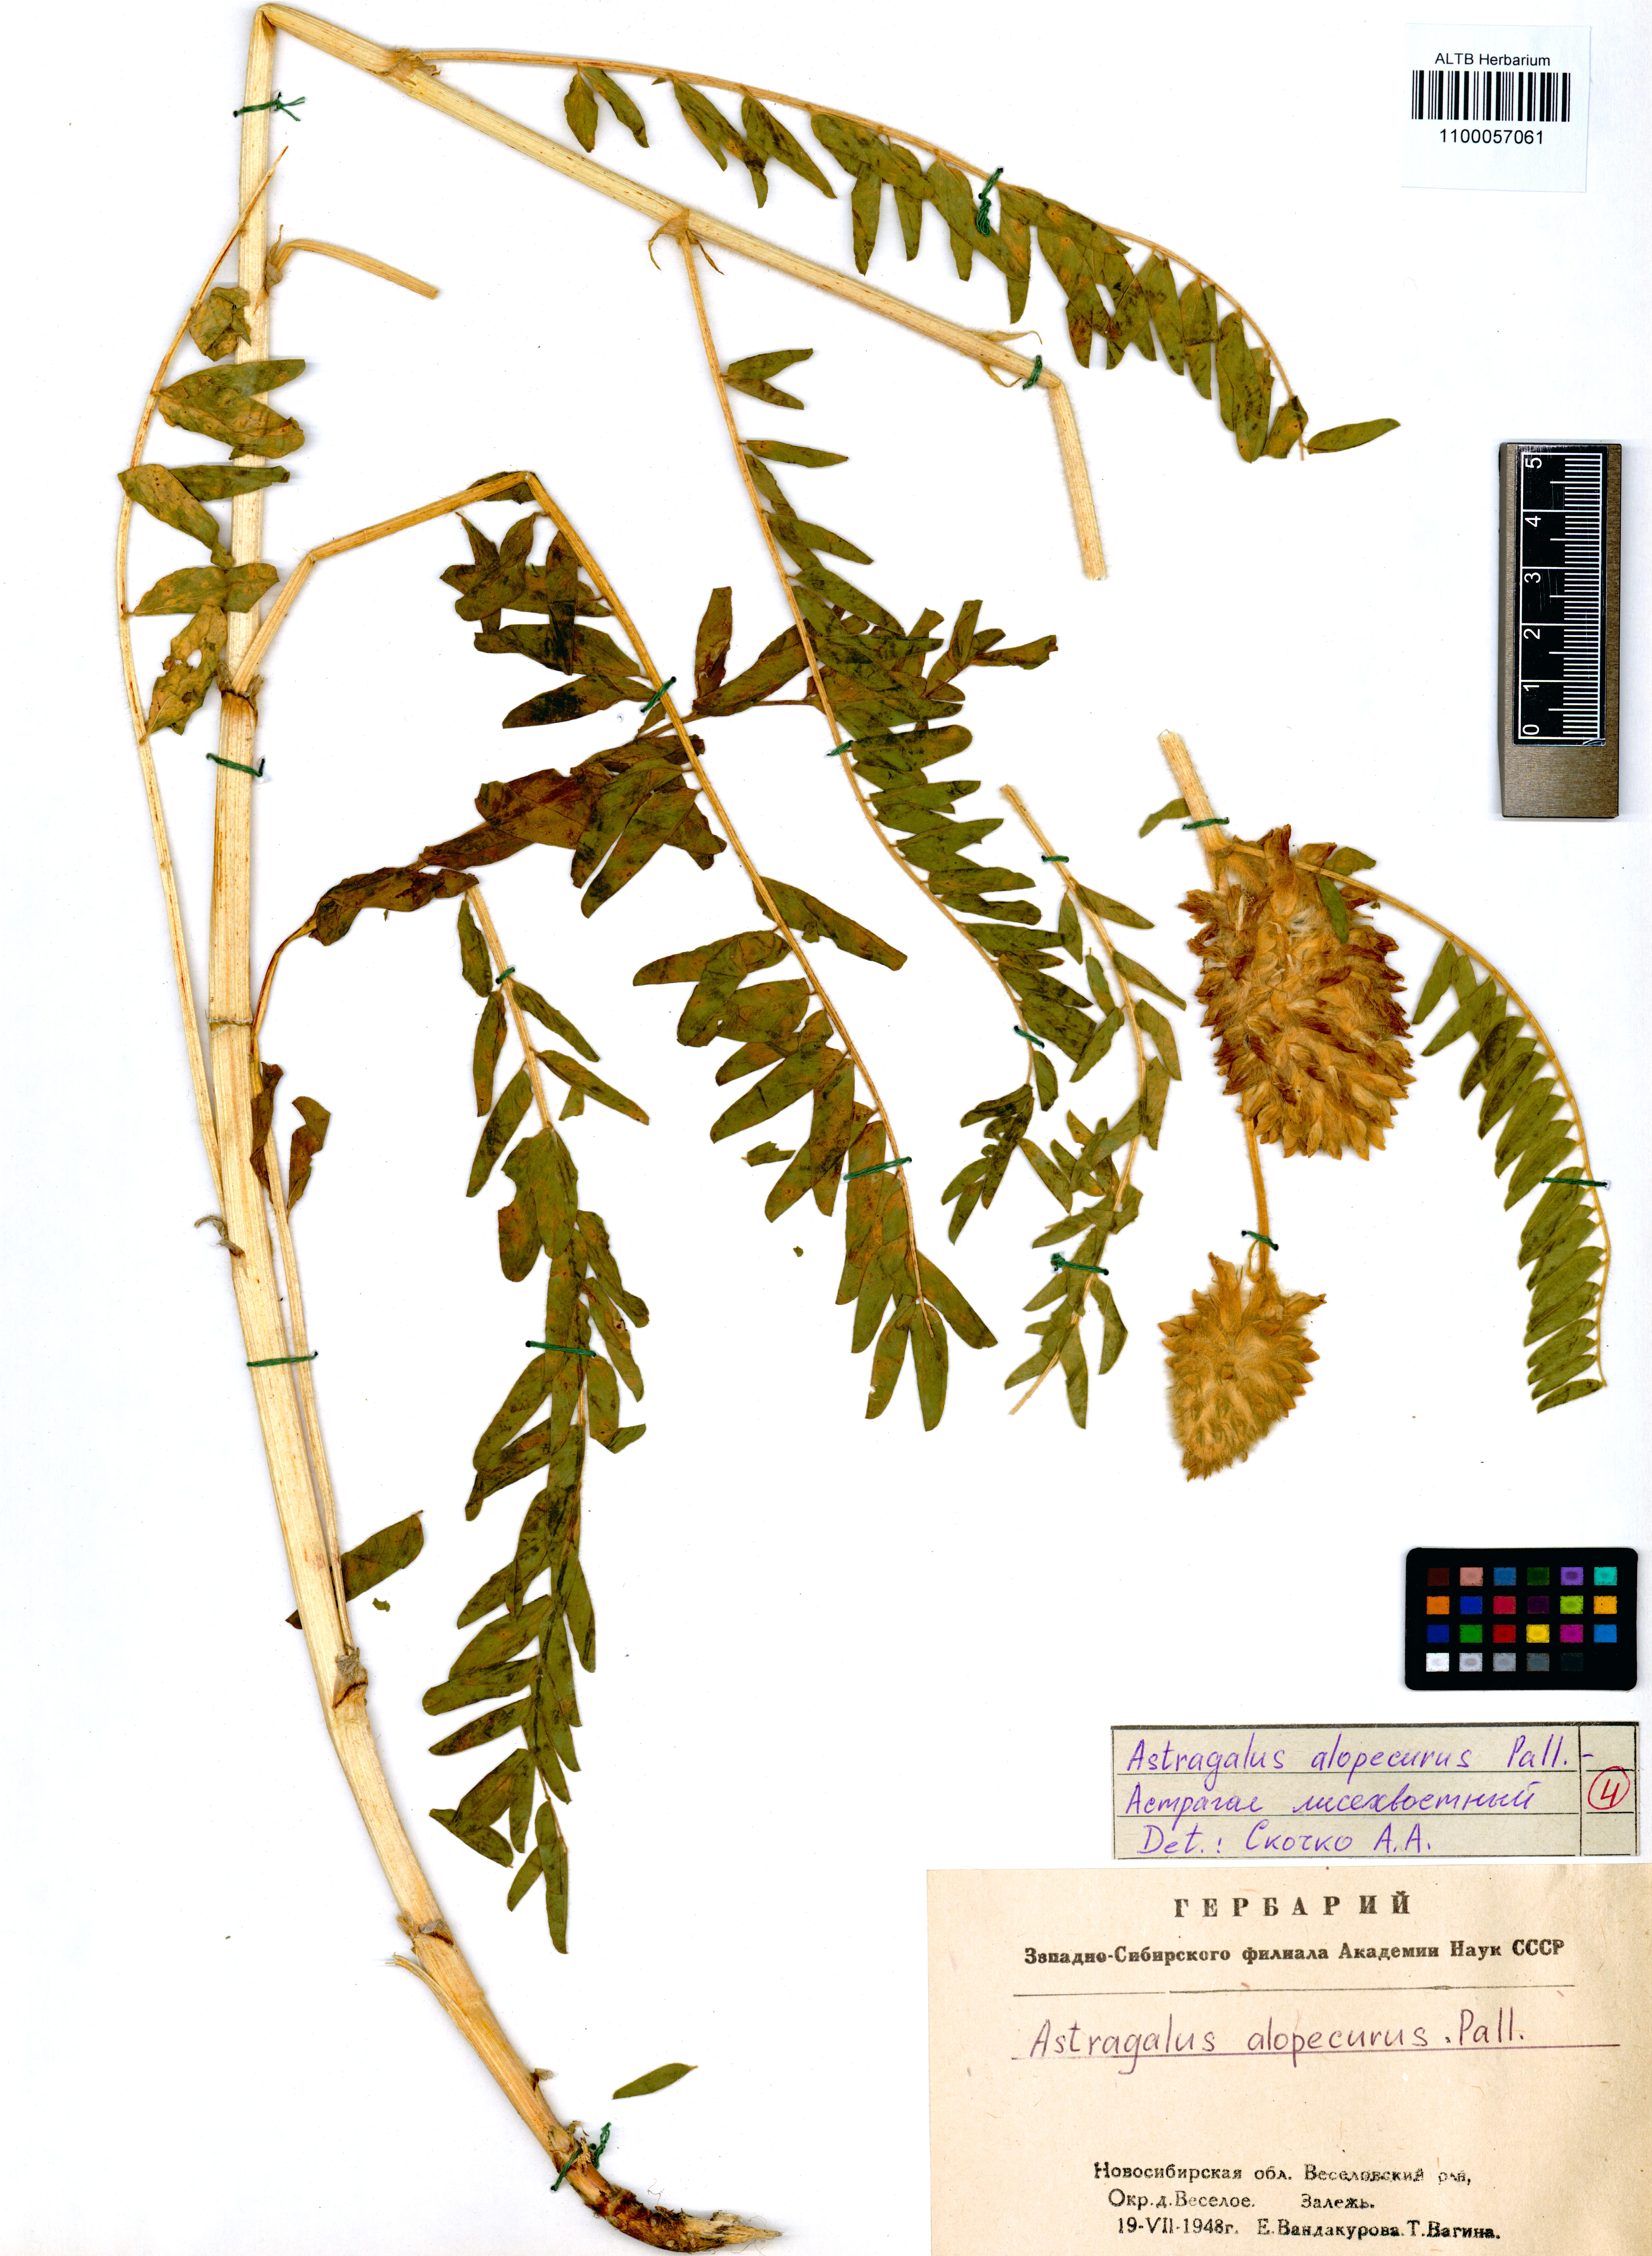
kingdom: Plantae
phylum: Tracheophyta
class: Magnoliopsida
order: Fabales
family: Fabaceae
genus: Astragalus
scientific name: Astragalus alopecurus
